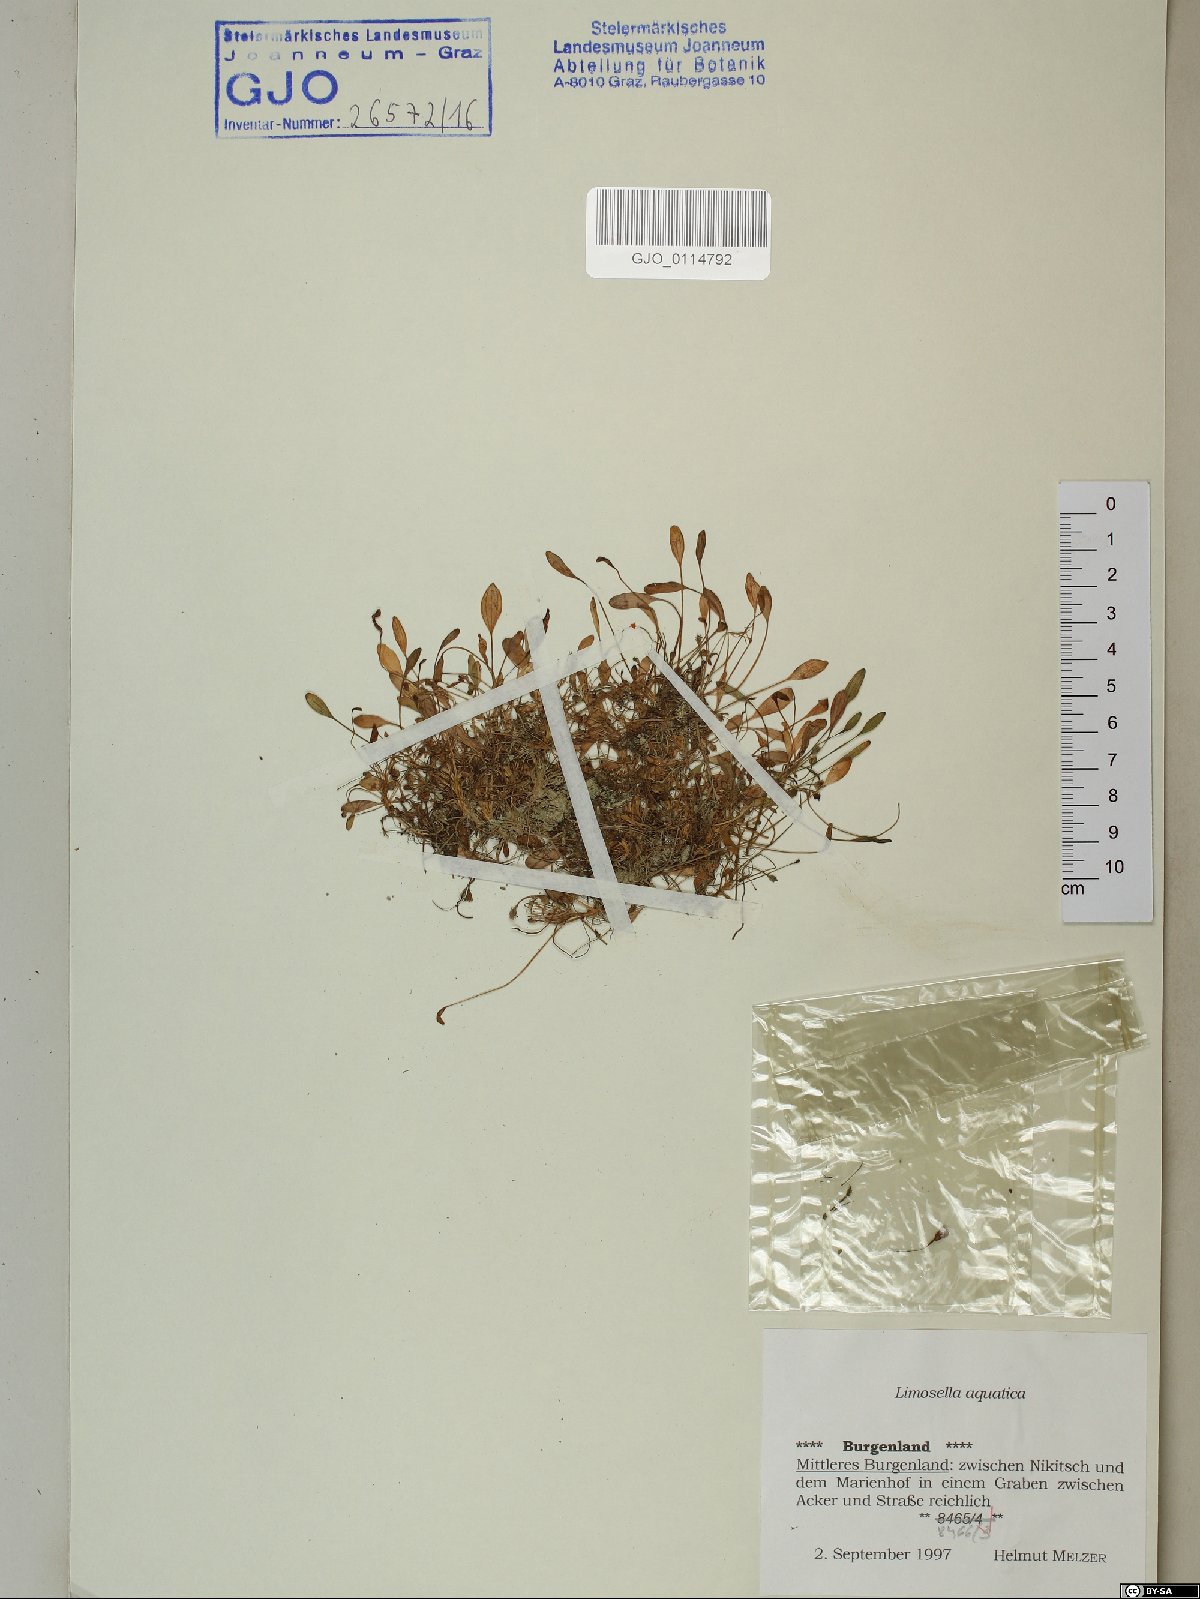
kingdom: Plantae
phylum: Tracheophyta
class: Magnoliopsida
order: Lamiales
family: Scrophulariaceae
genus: Limosella
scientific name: Limosella aquatica
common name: Mudwort
